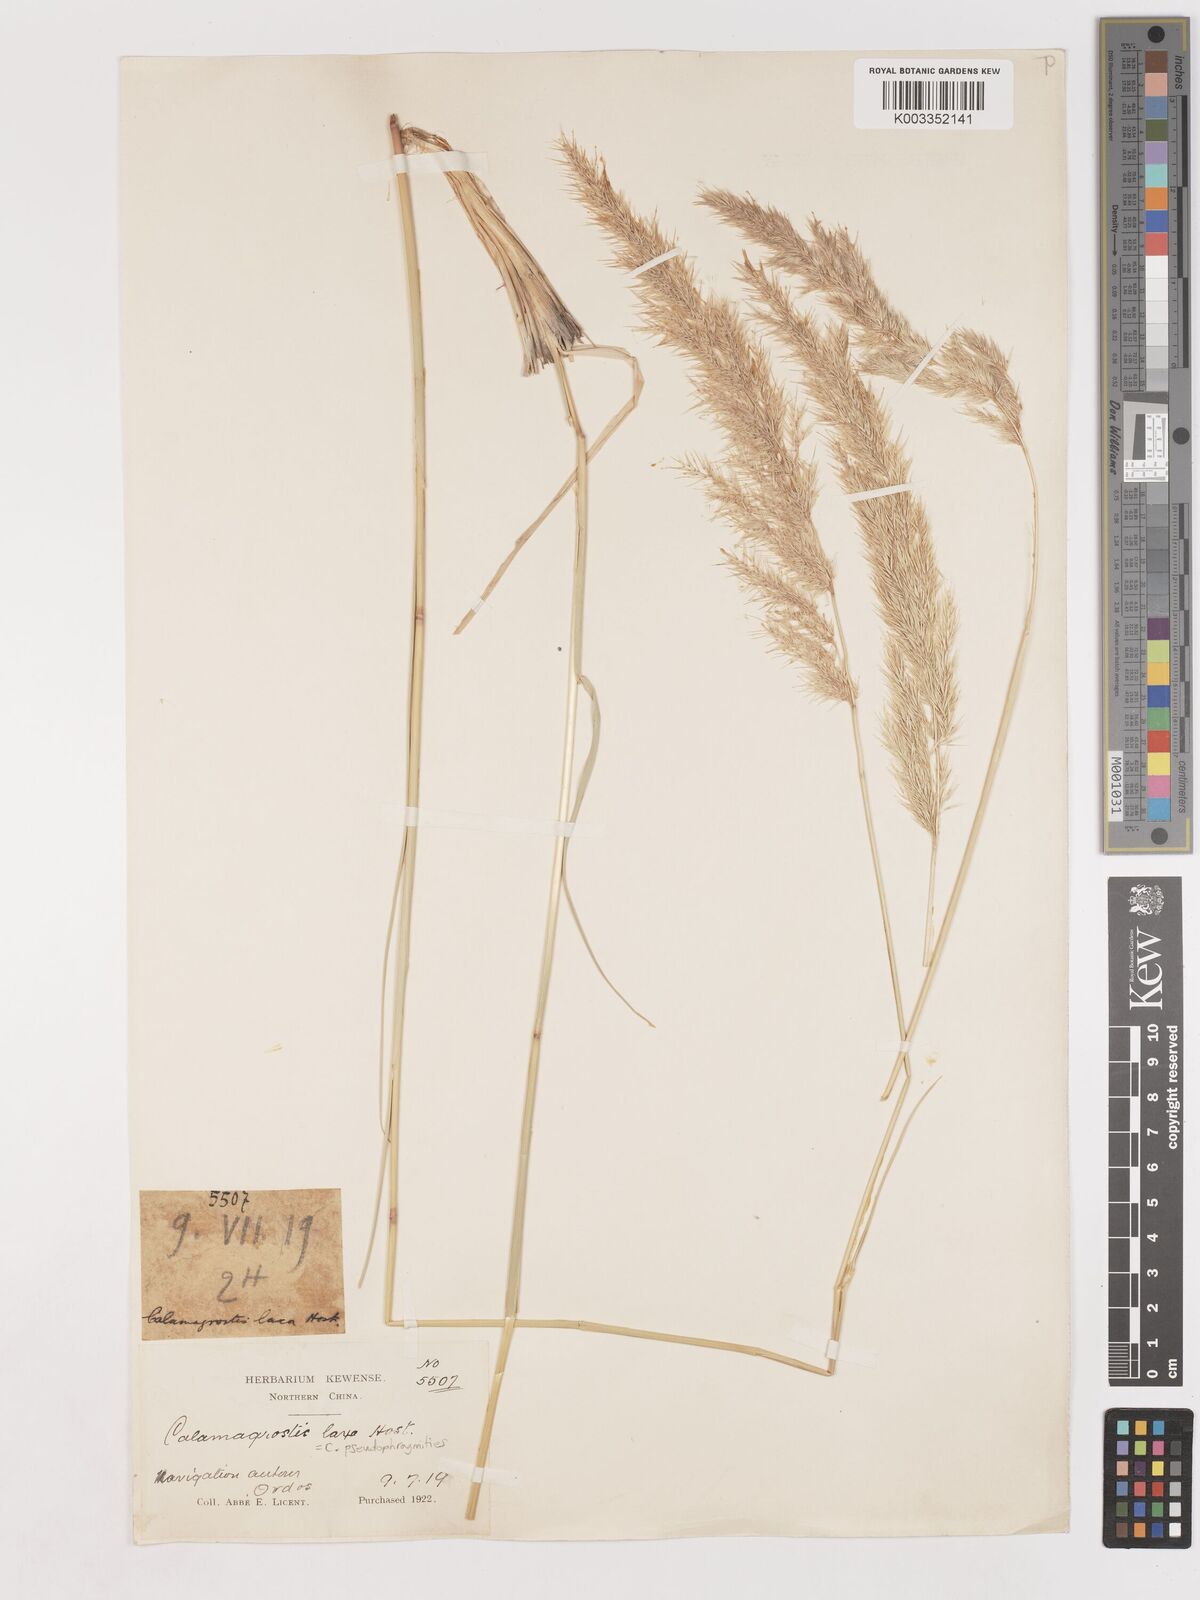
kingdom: Plantae
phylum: Tracheophyta
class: Liliopsida
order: Poales
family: Poaceae
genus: Calamagrostis
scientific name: Calamagrostis pseudophragmites
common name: Coastal small-reed
